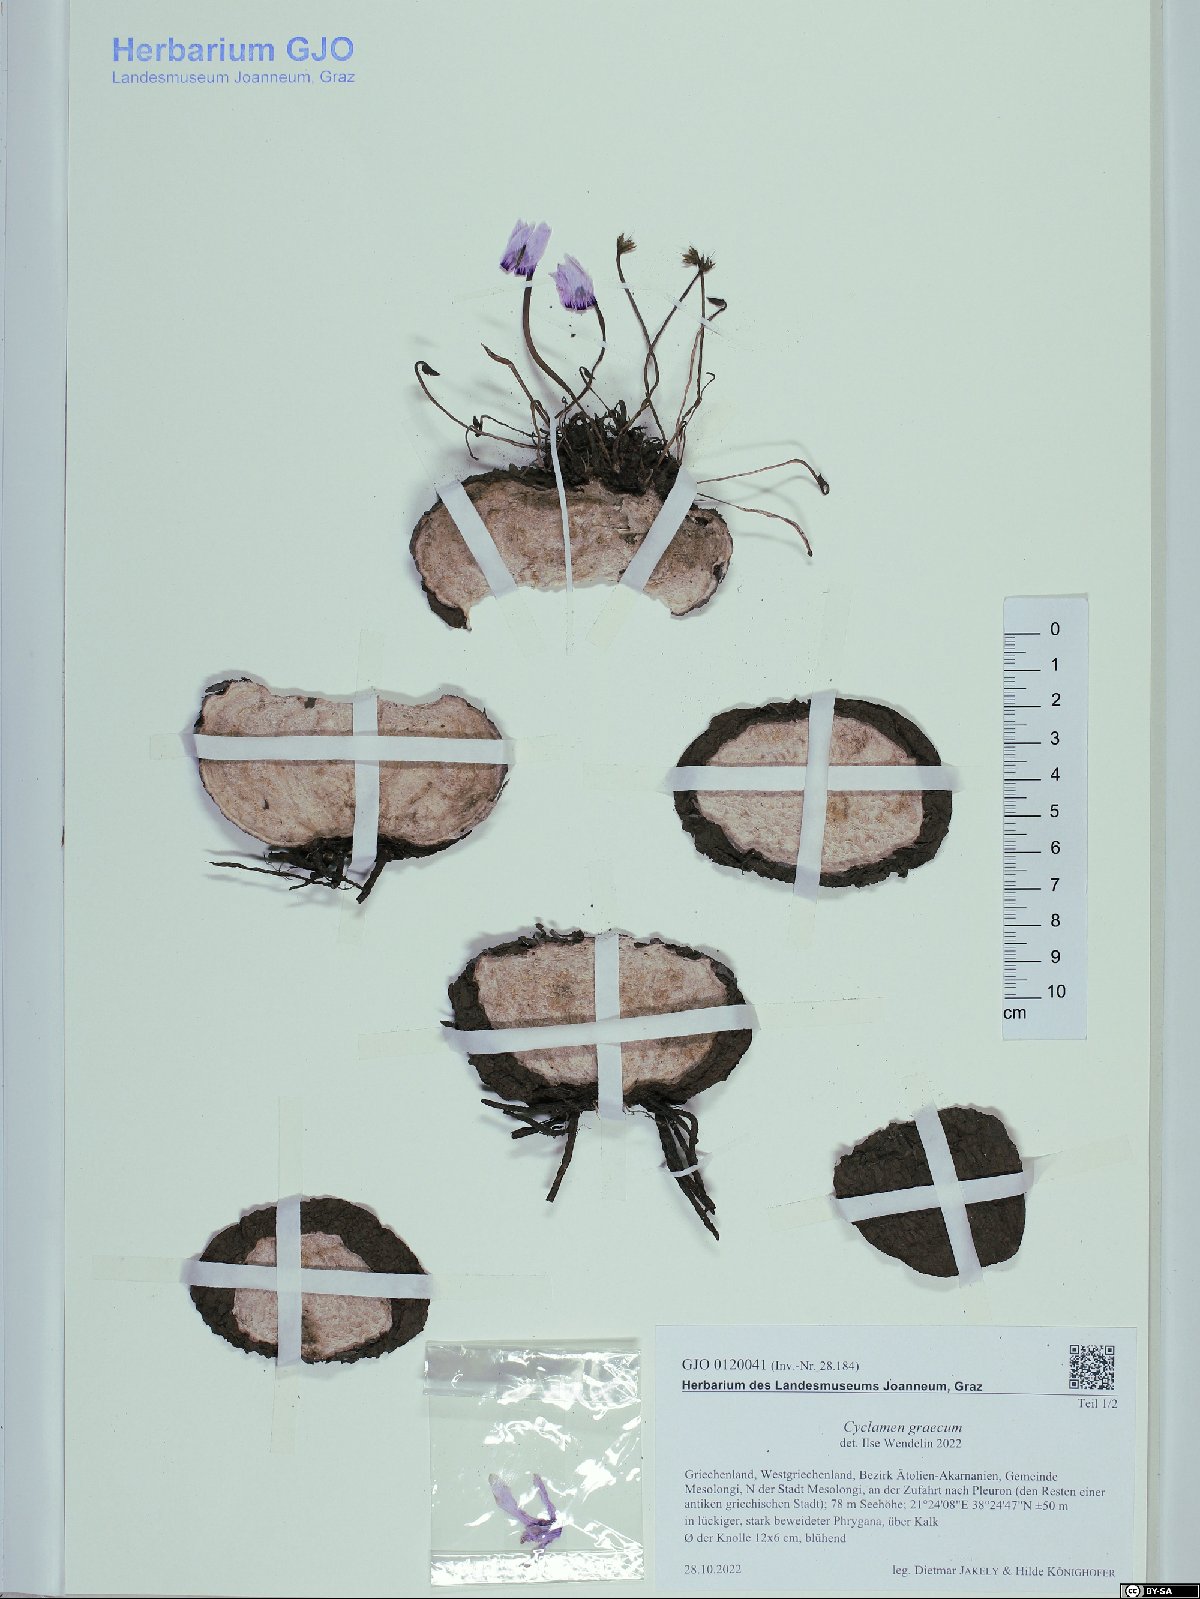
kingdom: Plantae
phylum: Tracheophyta
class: Magnoliopsida
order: Ericales
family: Primulaceae
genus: Cyclamen
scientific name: Cyclamen graecum
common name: Greek cyclamen
